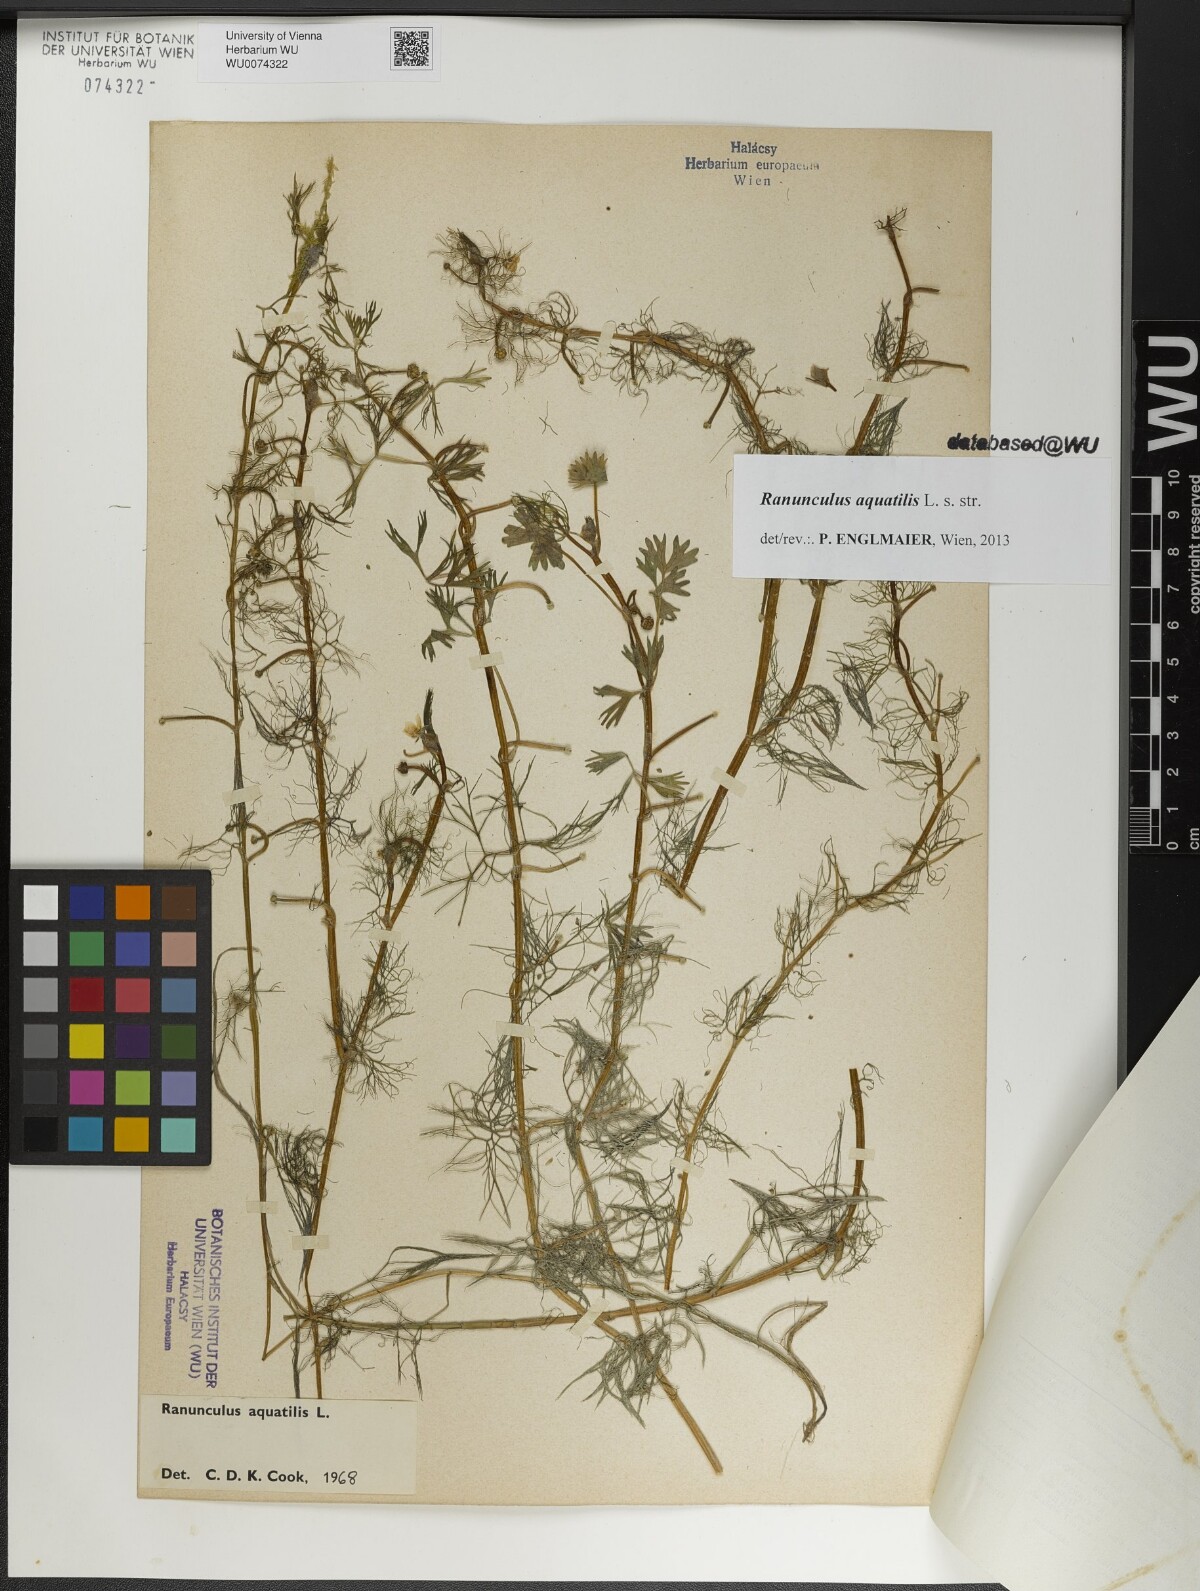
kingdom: Plantae
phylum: Tracheophyta
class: Magnoliopsida
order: Ranunculales
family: Ranunculaceae
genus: Ranunculus
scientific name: Ranunculus aquatilis
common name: Common water-crowfoot
